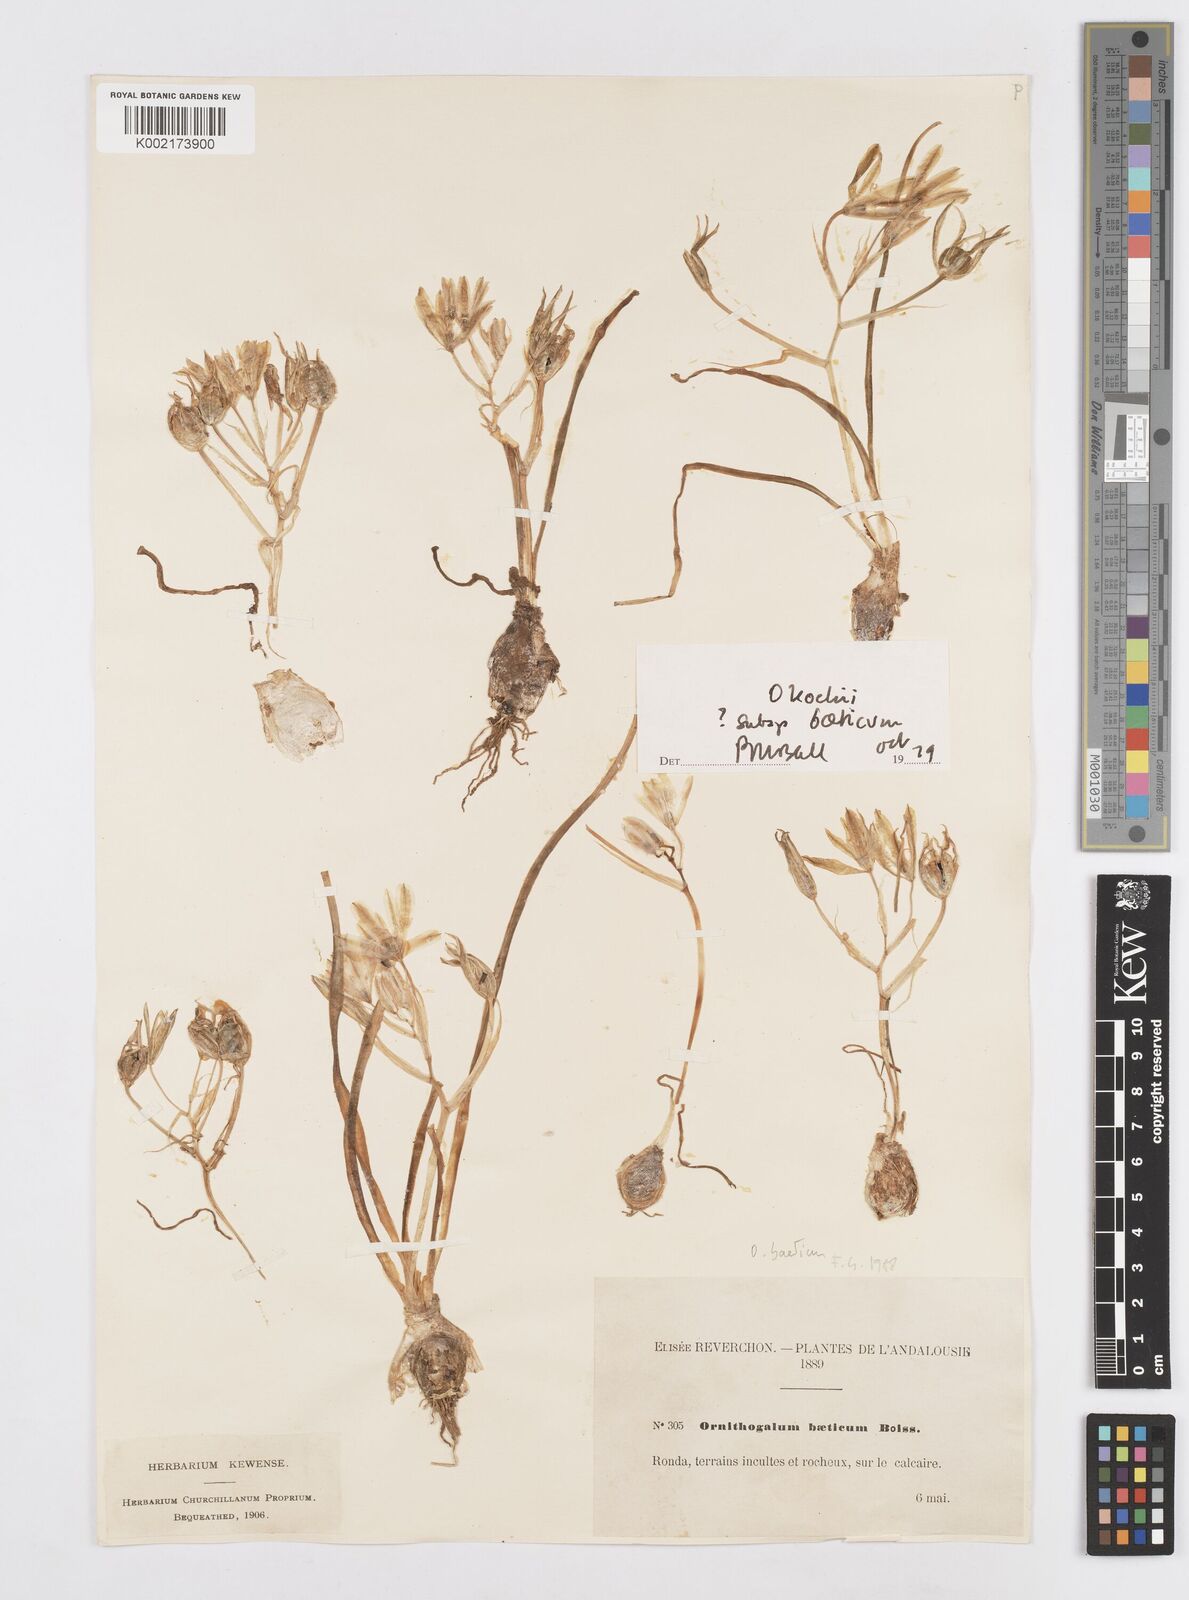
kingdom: Plantae
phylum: Tracheophyta
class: Liliopsida
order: Asparagales
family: Asparagaceae
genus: Ornithogalum
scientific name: Ornithogalum orthophyllum
